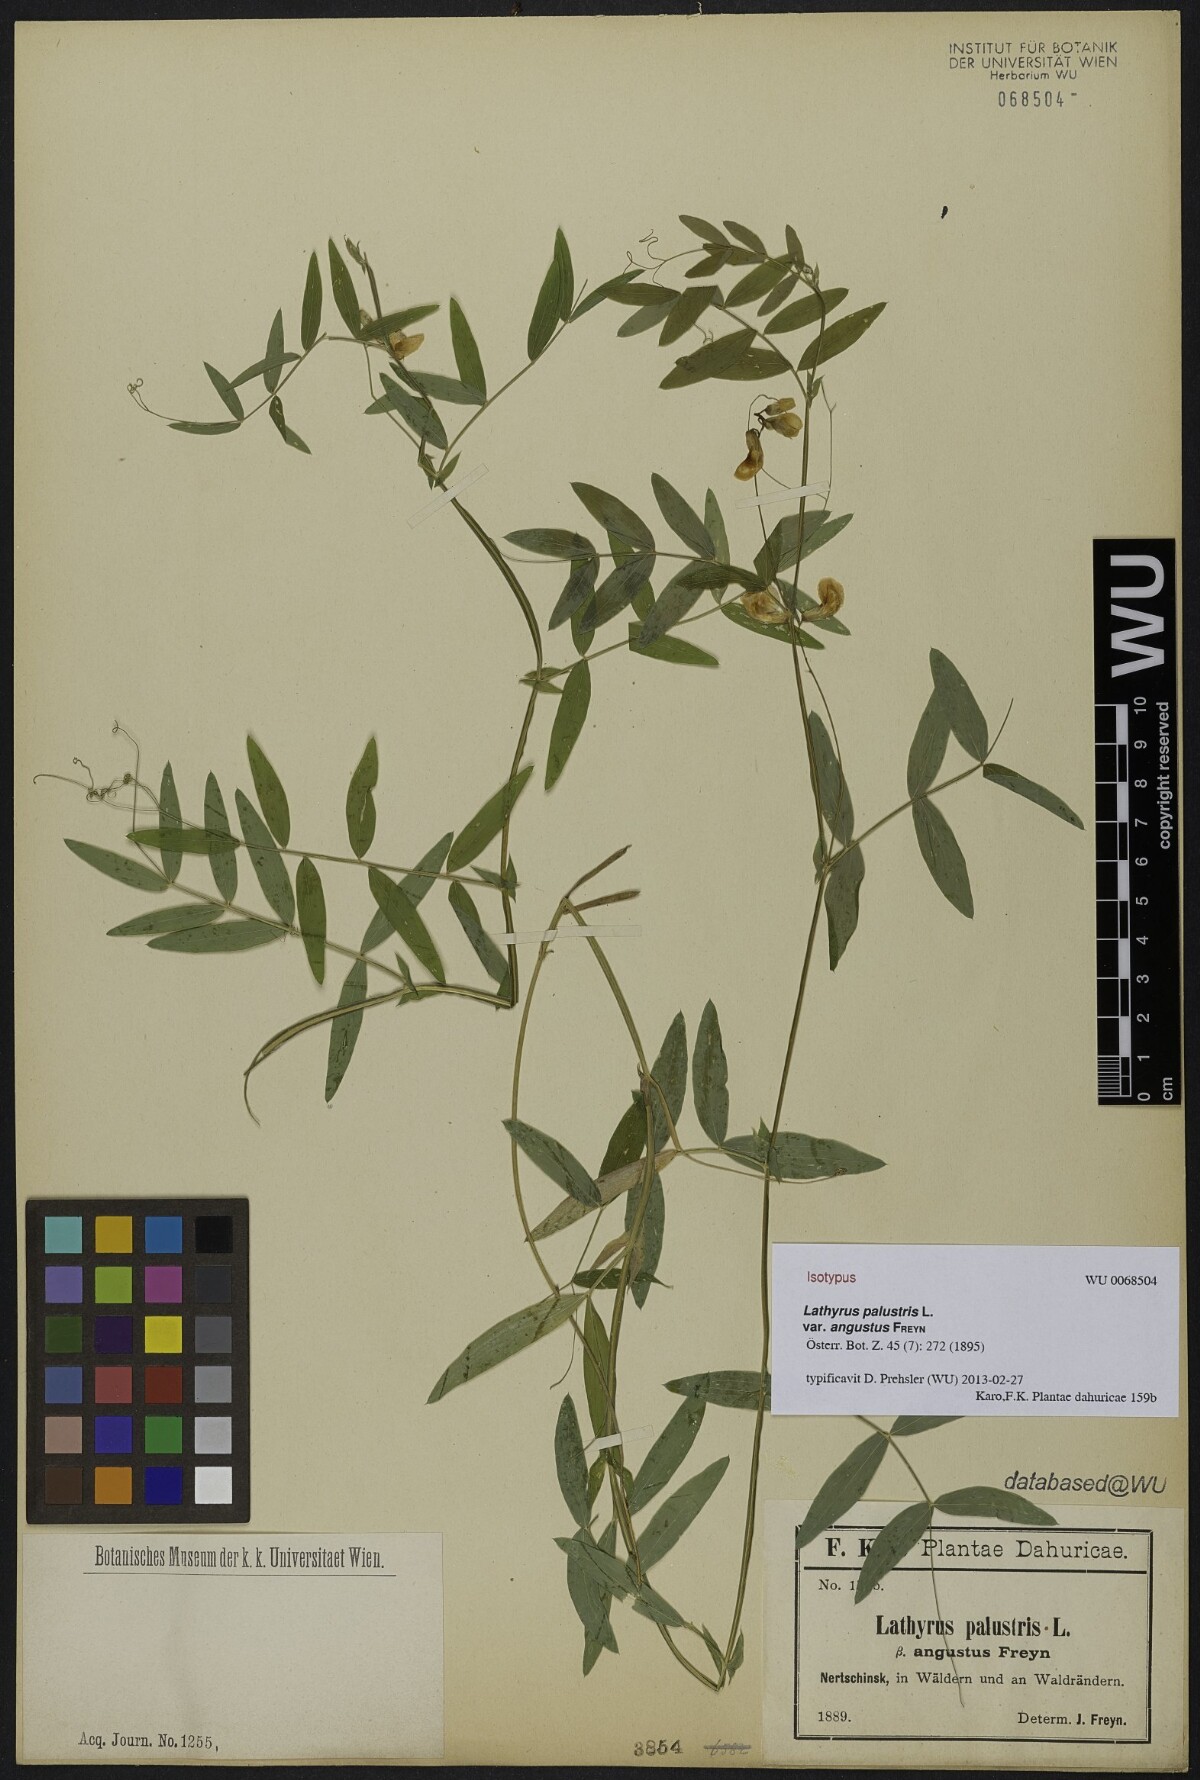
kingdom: Plantae
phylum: Tracheophyta
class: Magnoliopsida
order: Fabales
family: Fabaceae
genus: Lathyrus
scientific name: Lathyrus palustris
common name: Marsh pea
